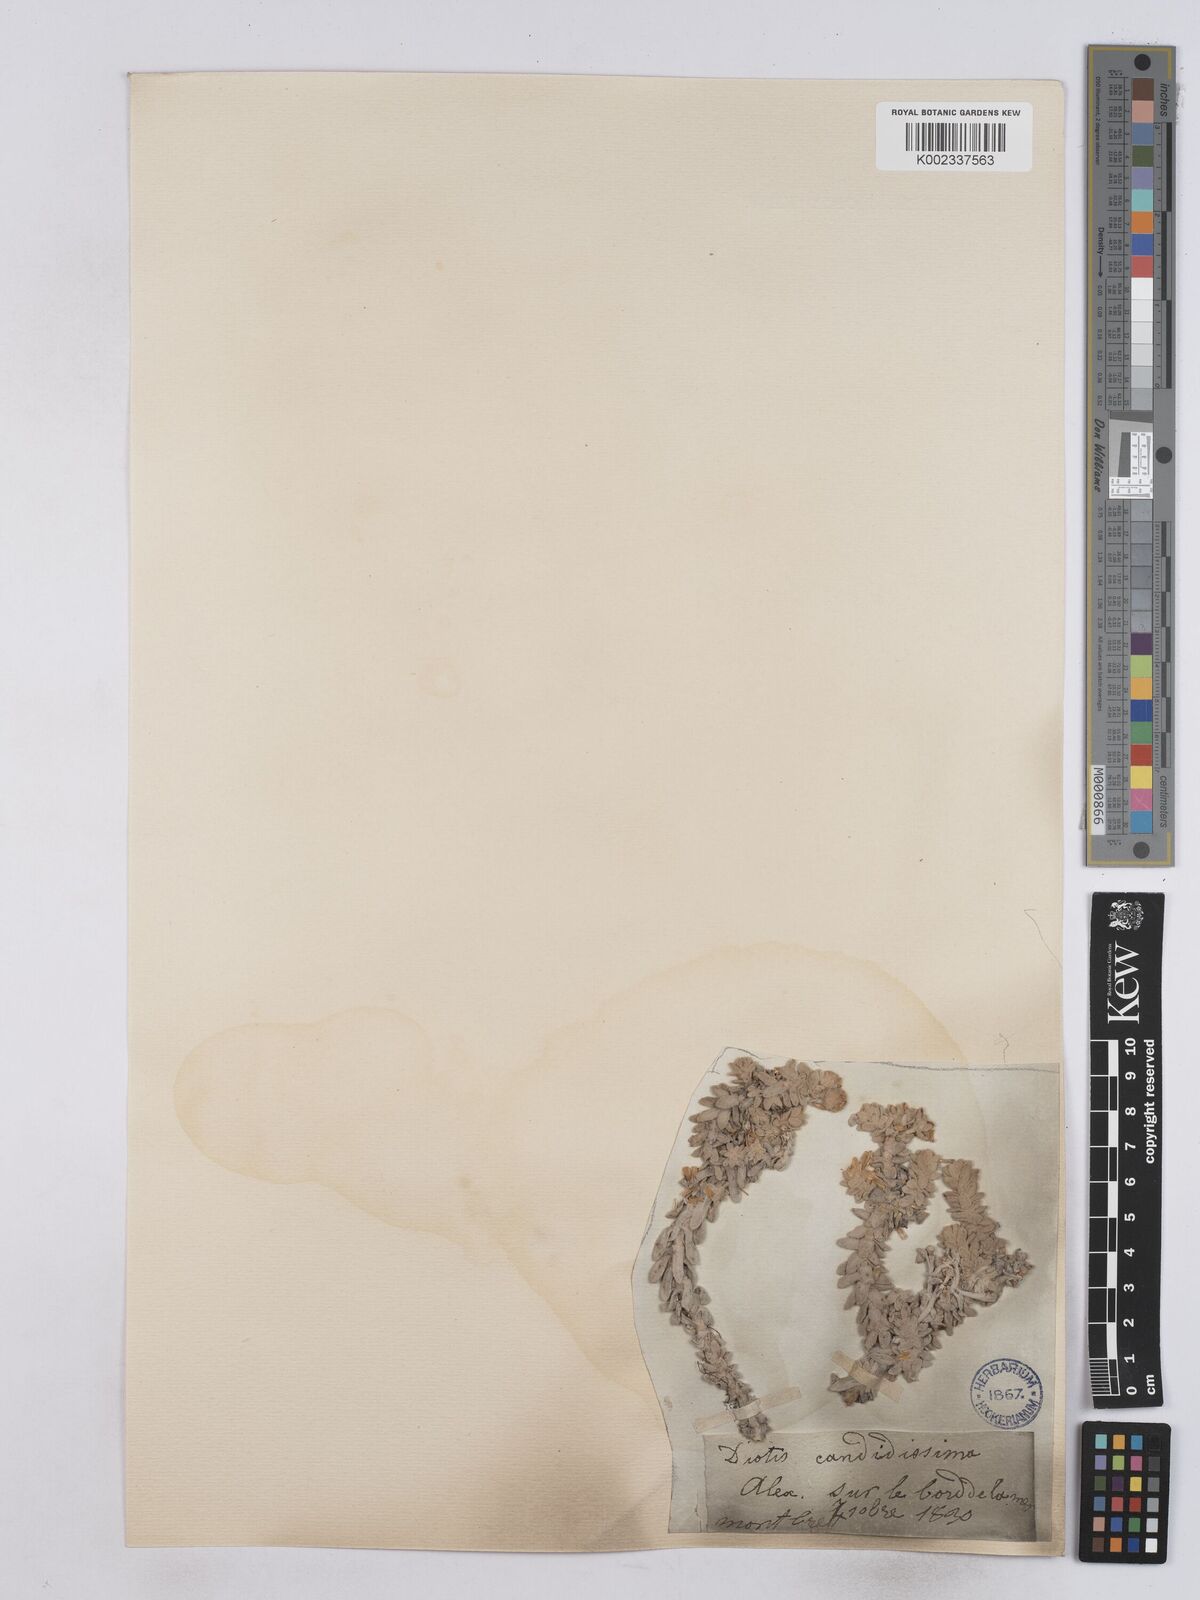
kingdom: Plantae
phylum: Tracheophyta
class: Magnoliopsida
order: Asterales
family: Asteraceae
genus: Achillea
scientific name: Achillea maritima
